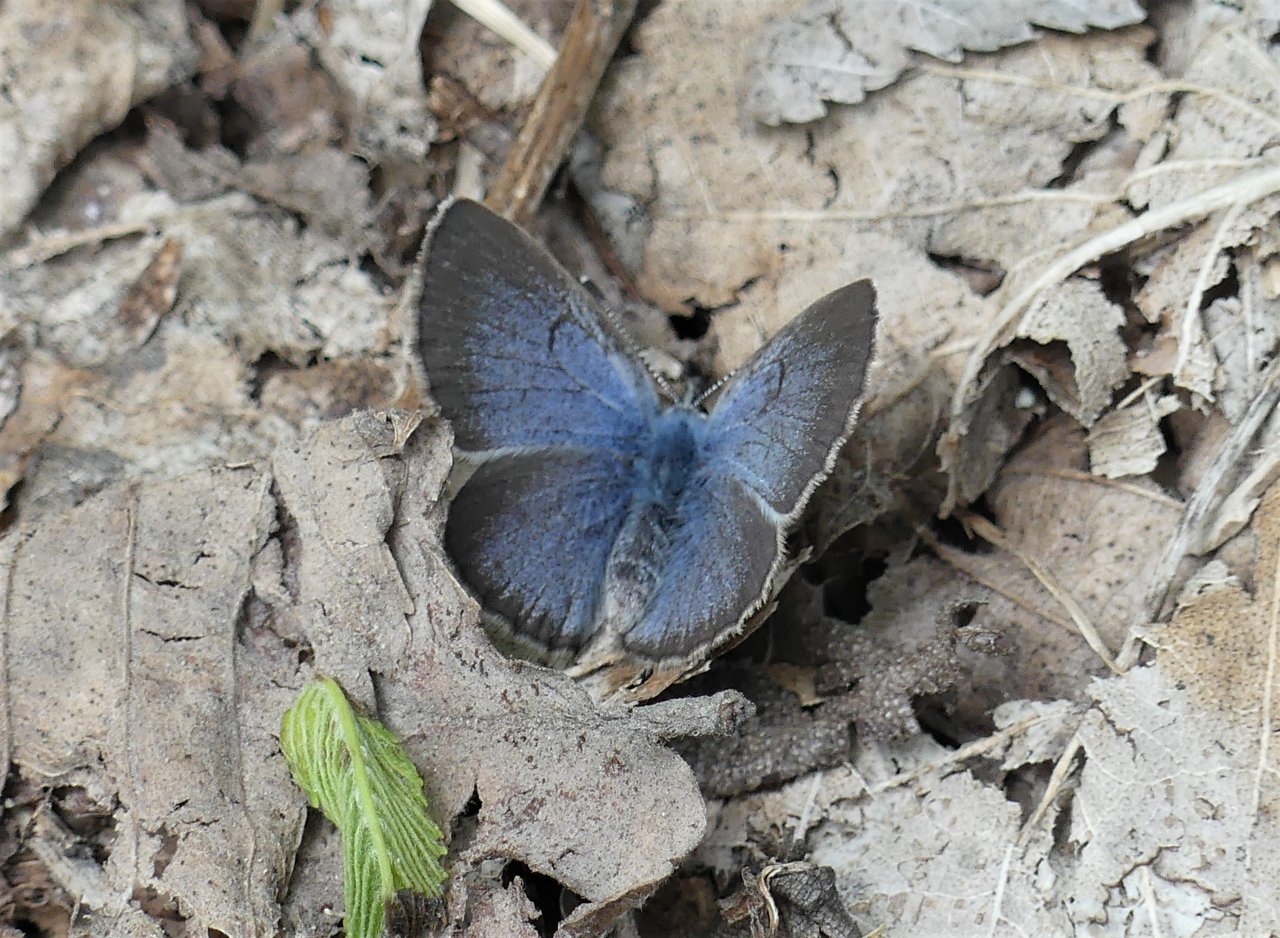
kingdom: Animalia
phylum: Arthropoda
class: Insecta
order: Lepidoptera
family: Lycaenidae
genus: Glaucopsyche
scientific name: Glaucopsyche lygdamus
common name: Silvery Blue
